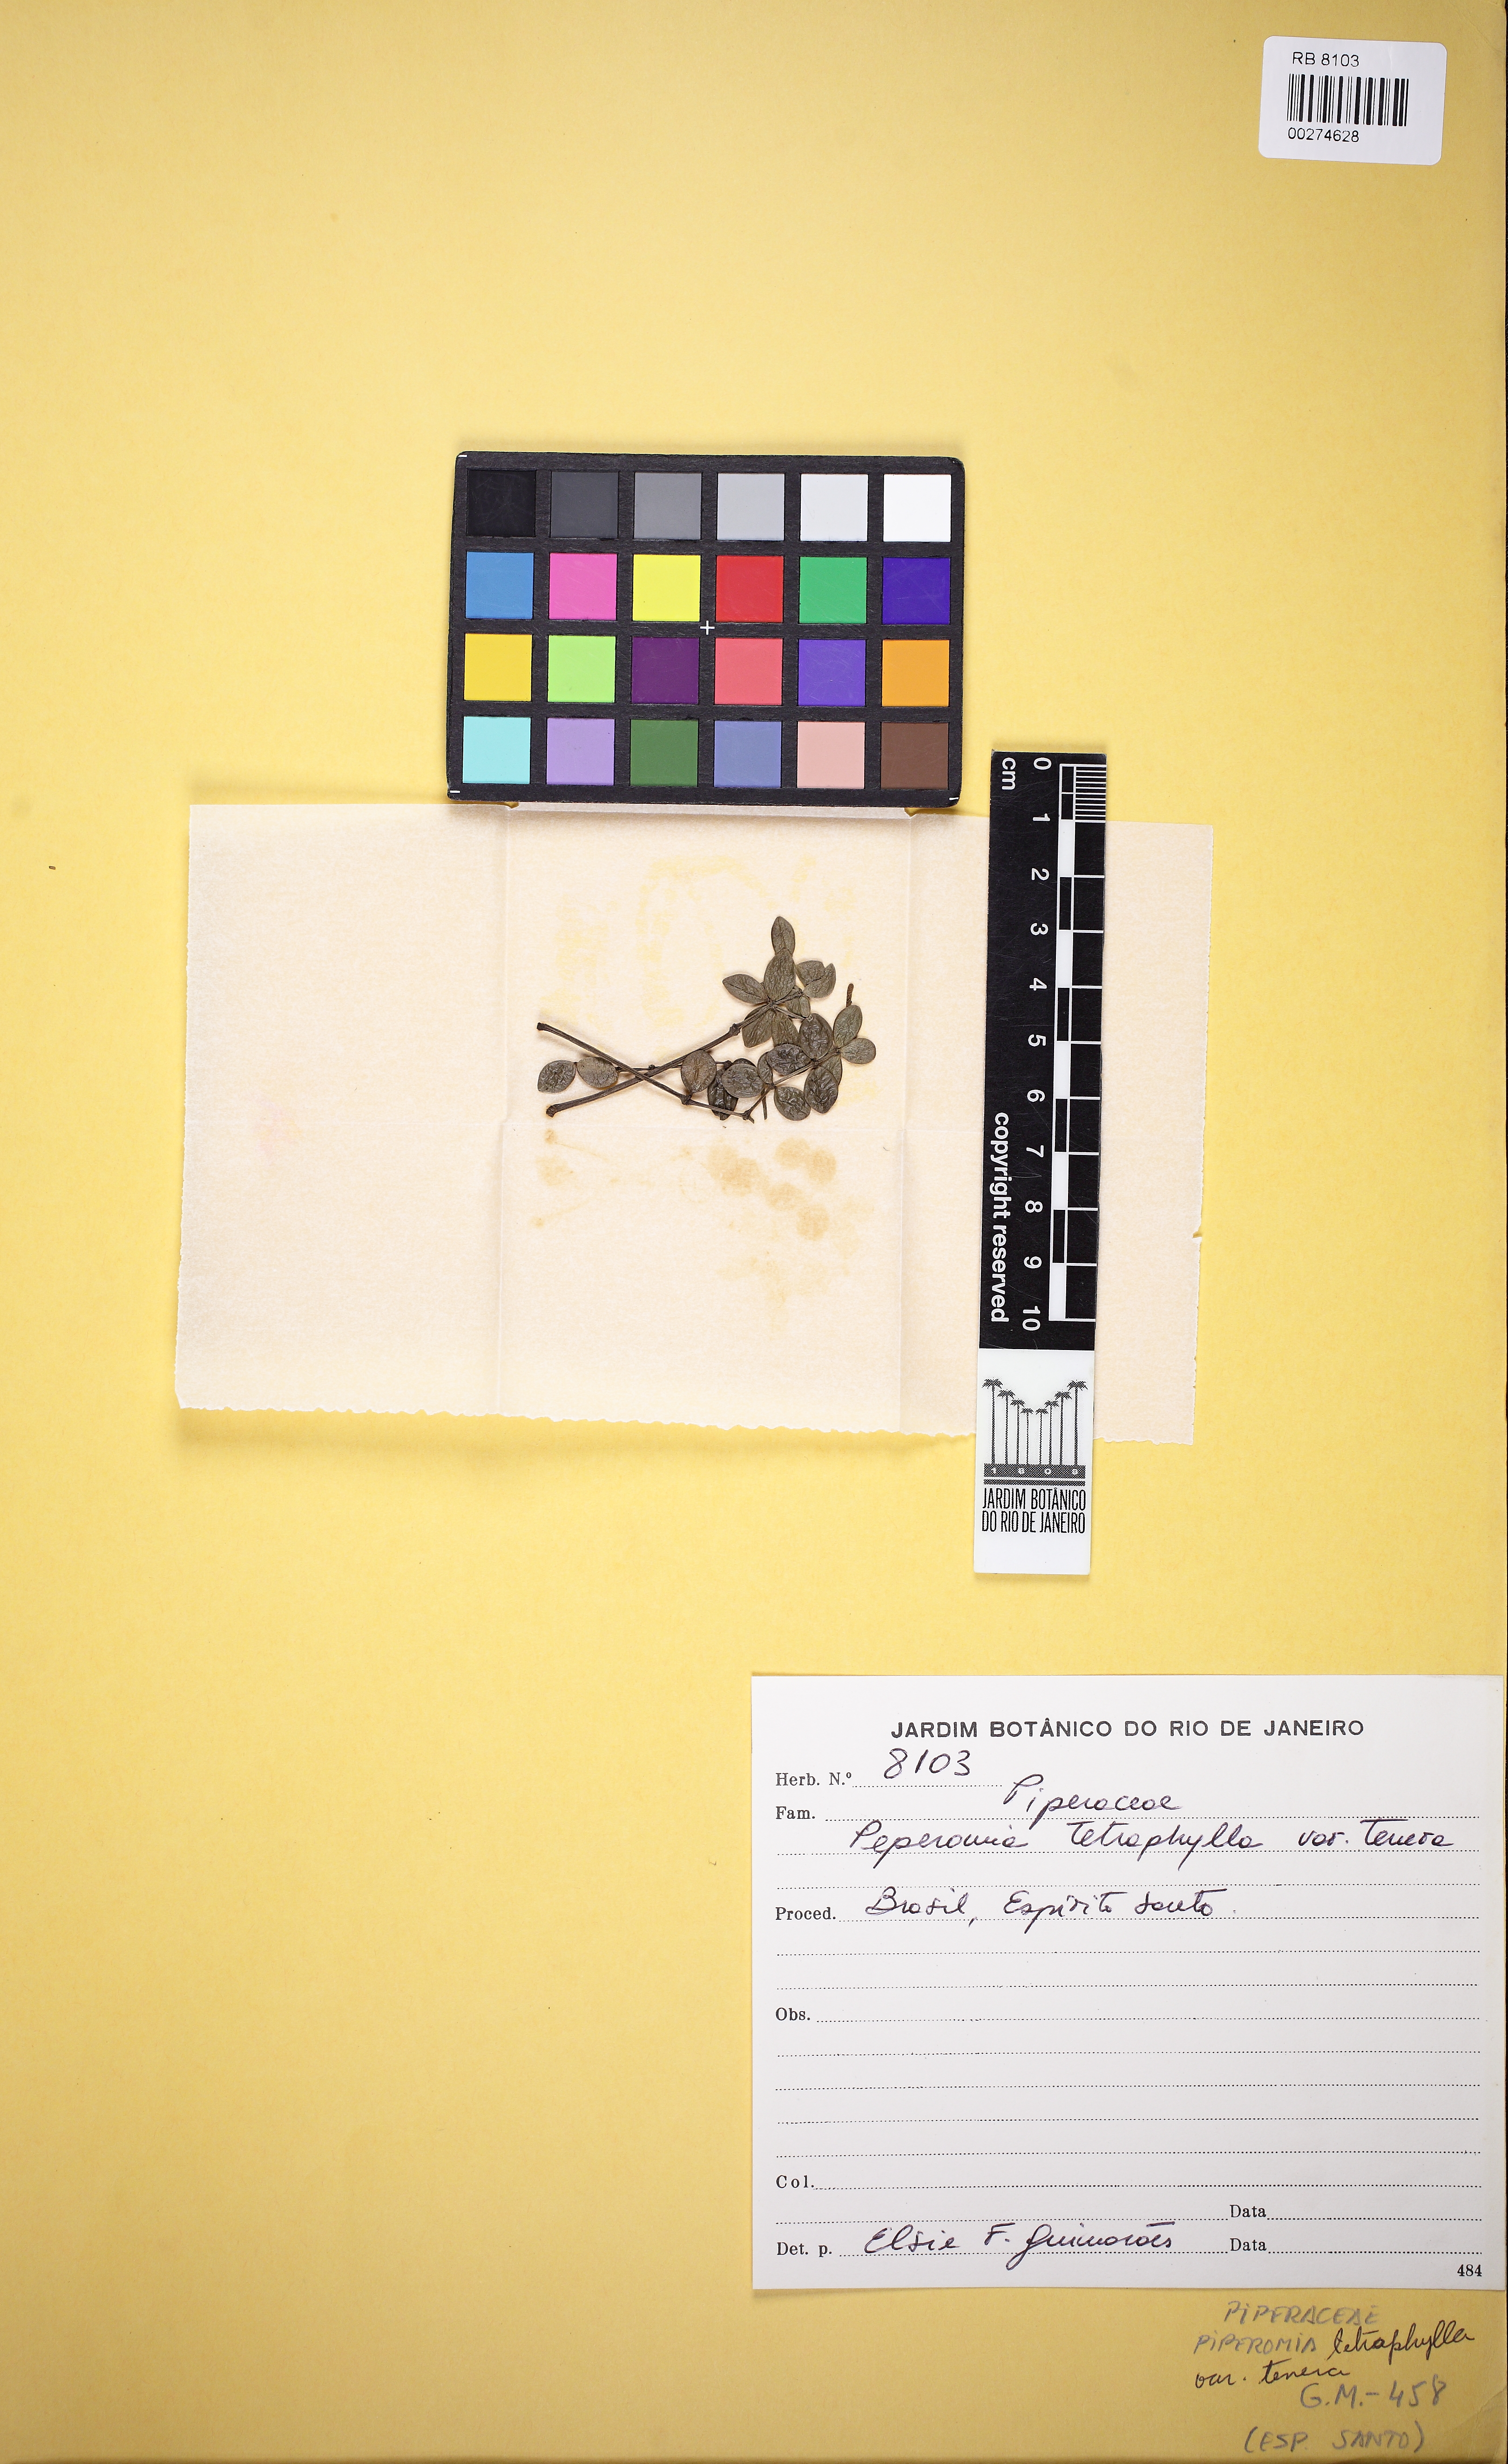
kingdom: Plantae
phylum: Tracheophyta
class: Magnoliopsida
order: Piperales
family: Piperaceae
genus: Peperomia
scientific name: Peperomia tetraphylla
